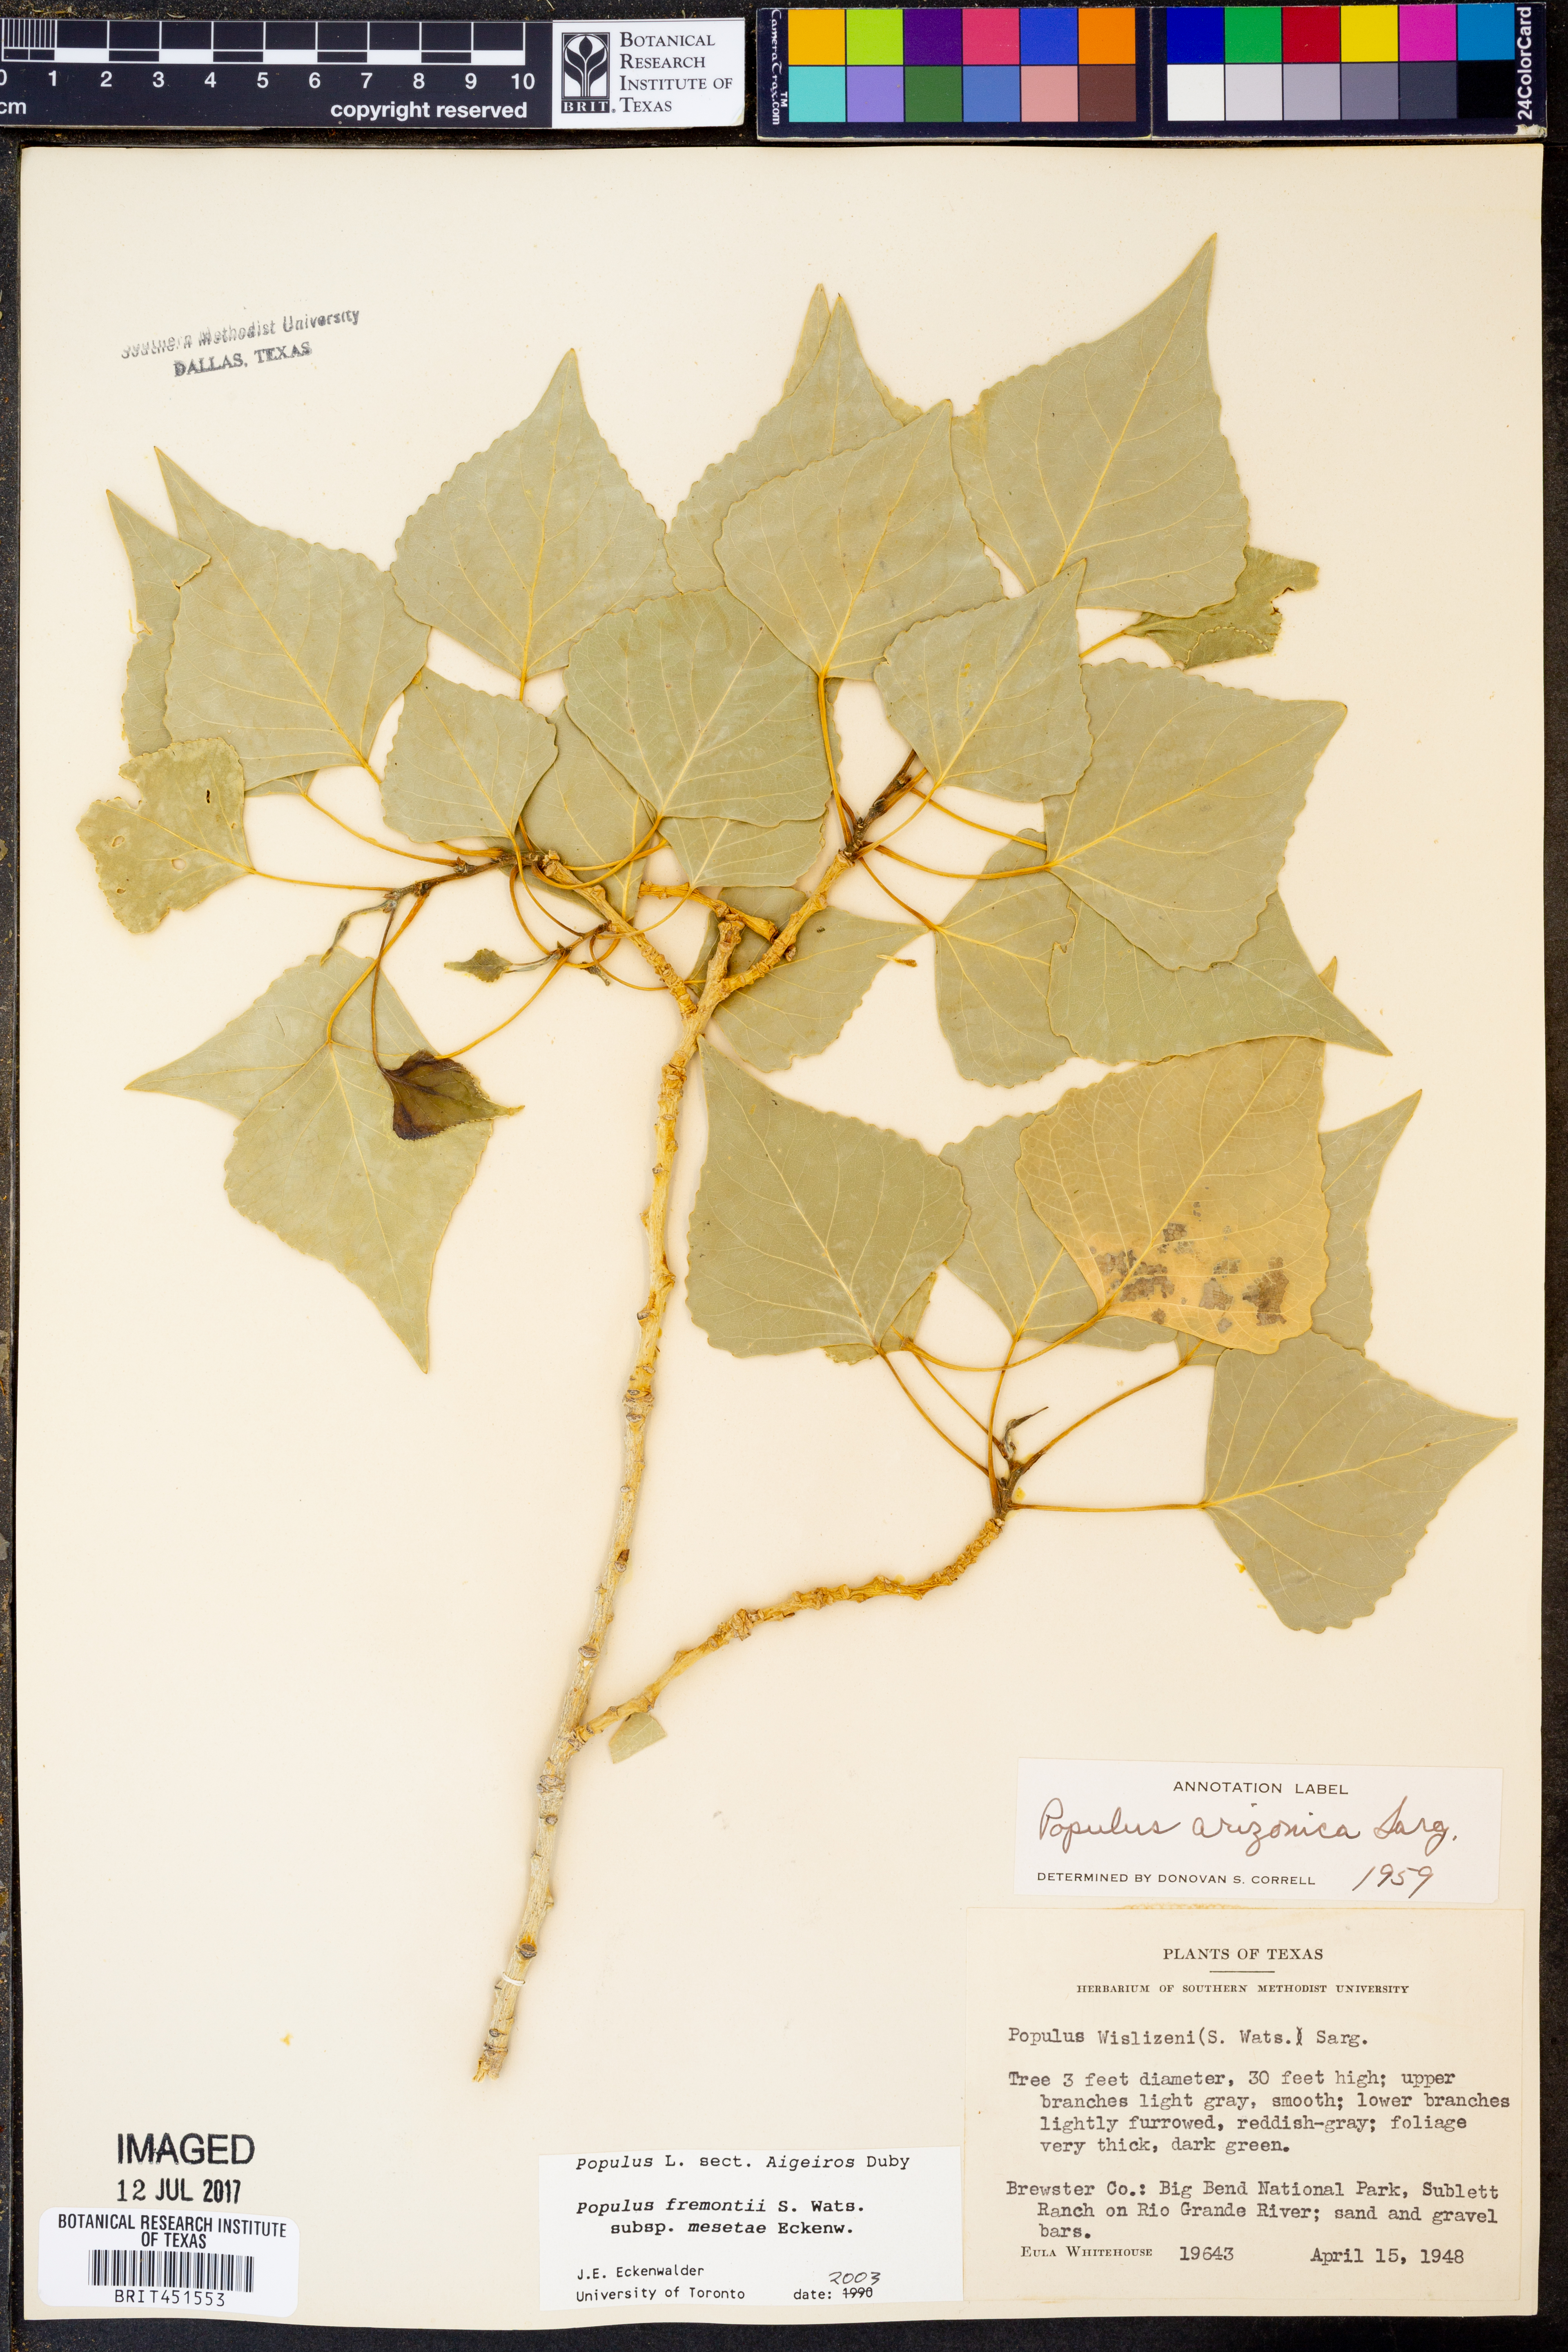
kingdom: Plantae
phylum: Tracheophyta
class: Magnoliopsida
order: Malpighiales
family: Salicaceae
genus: Populus
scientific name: Populus fremontii
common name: Fremont's cottonwood
